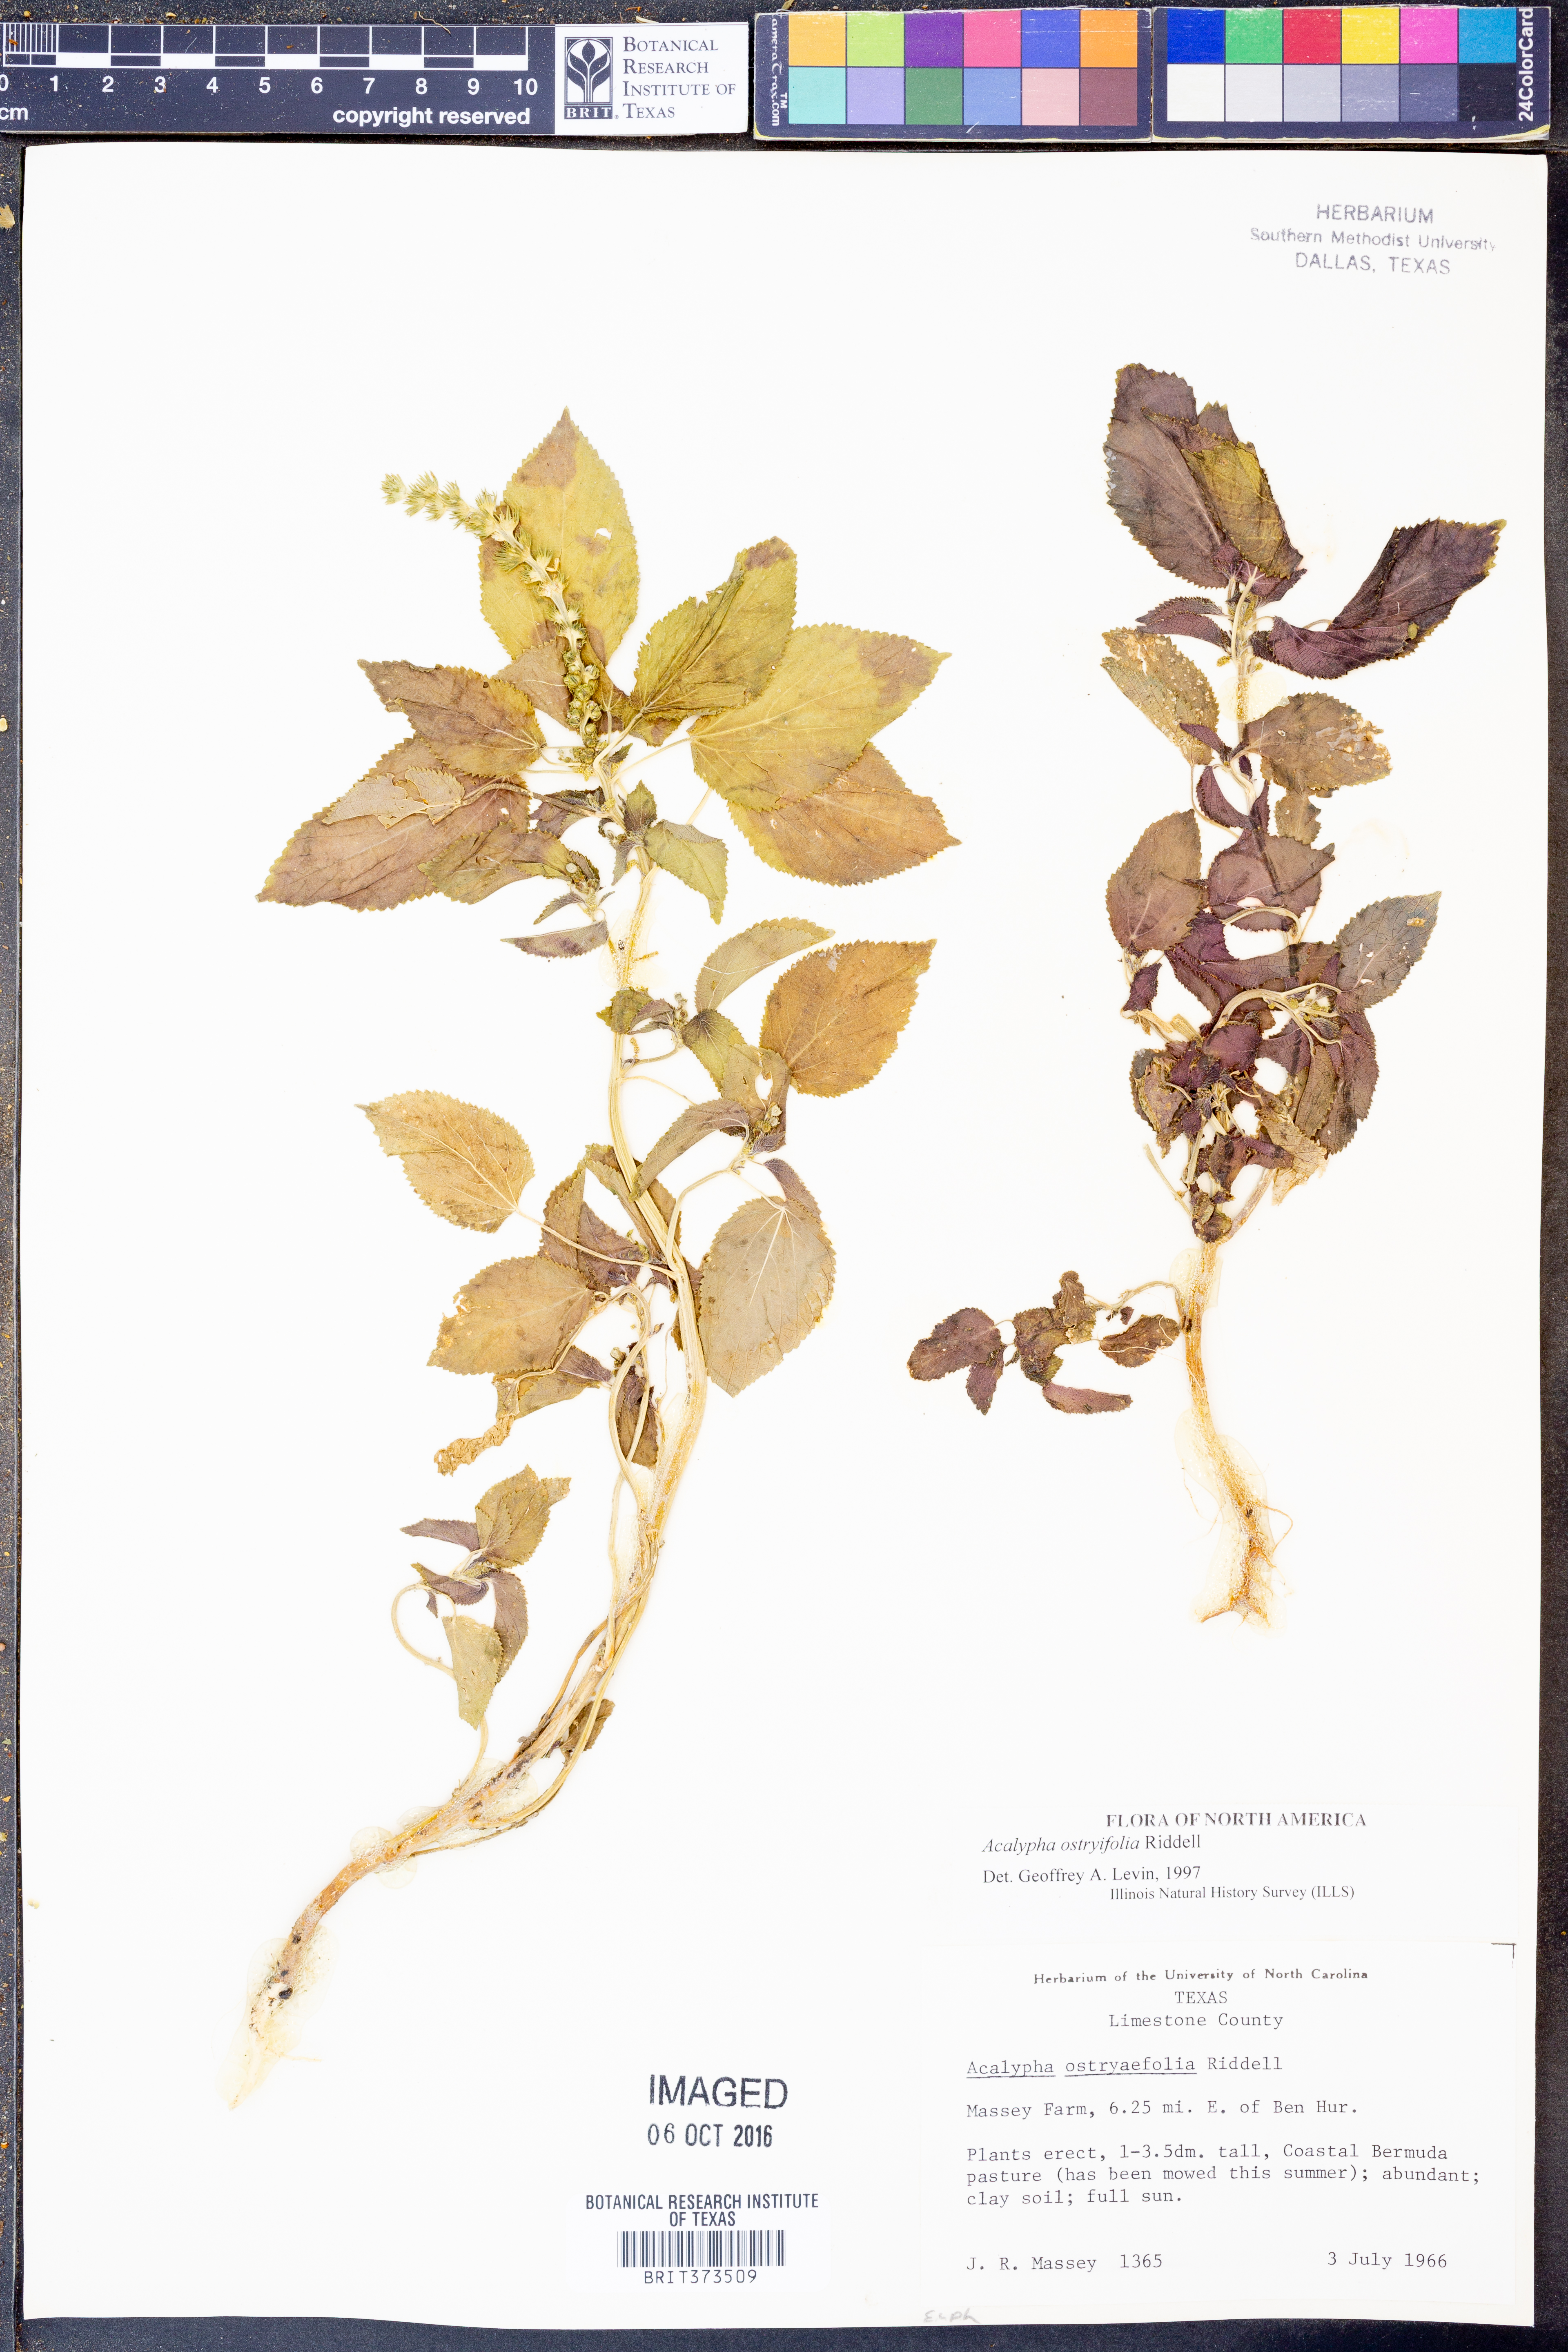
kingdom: Plantae
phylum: Tracheophyta
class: Magnoliopsida
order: Malpighiales
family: Euphorbiaceae
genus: Acalypha
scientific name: Acalypha persimilis
